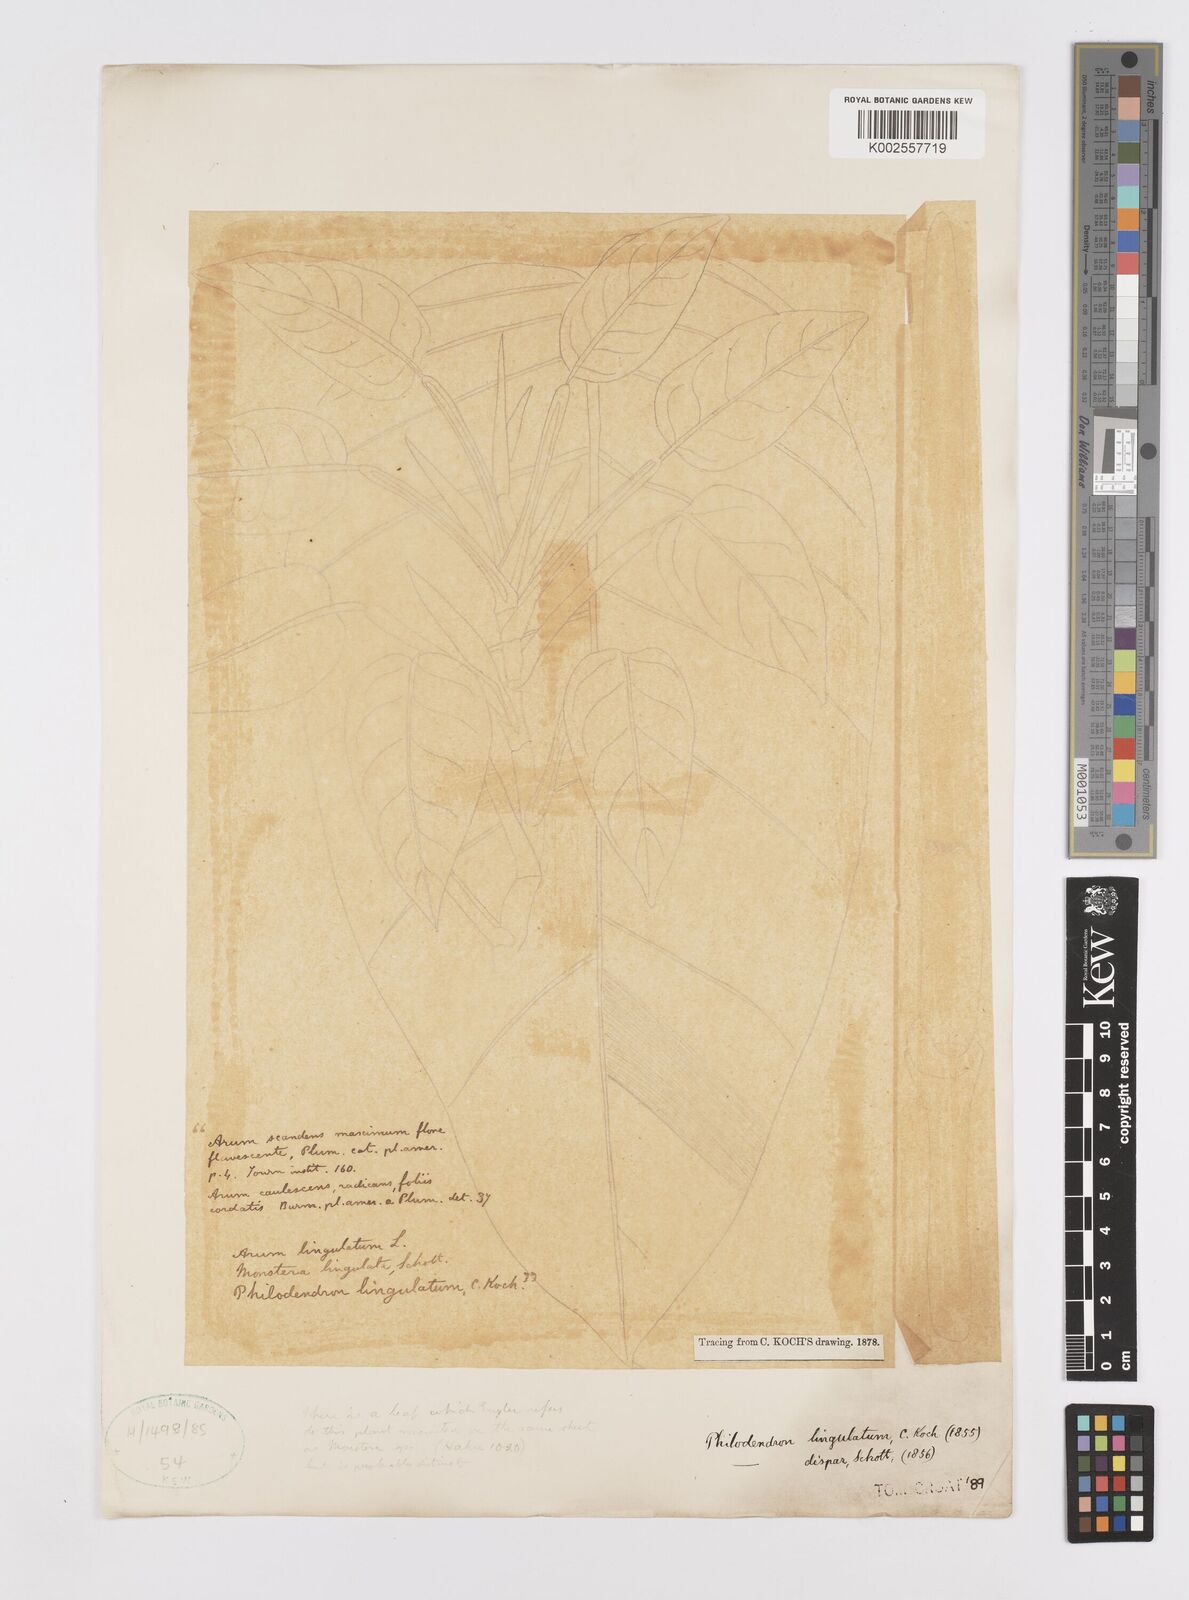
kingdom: Plantae
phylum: Tracheophyta
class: Liliopsida
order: Alismatales
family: Araceae
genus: Philodendron
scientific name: Philodendron lingulatum
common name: Treelover
